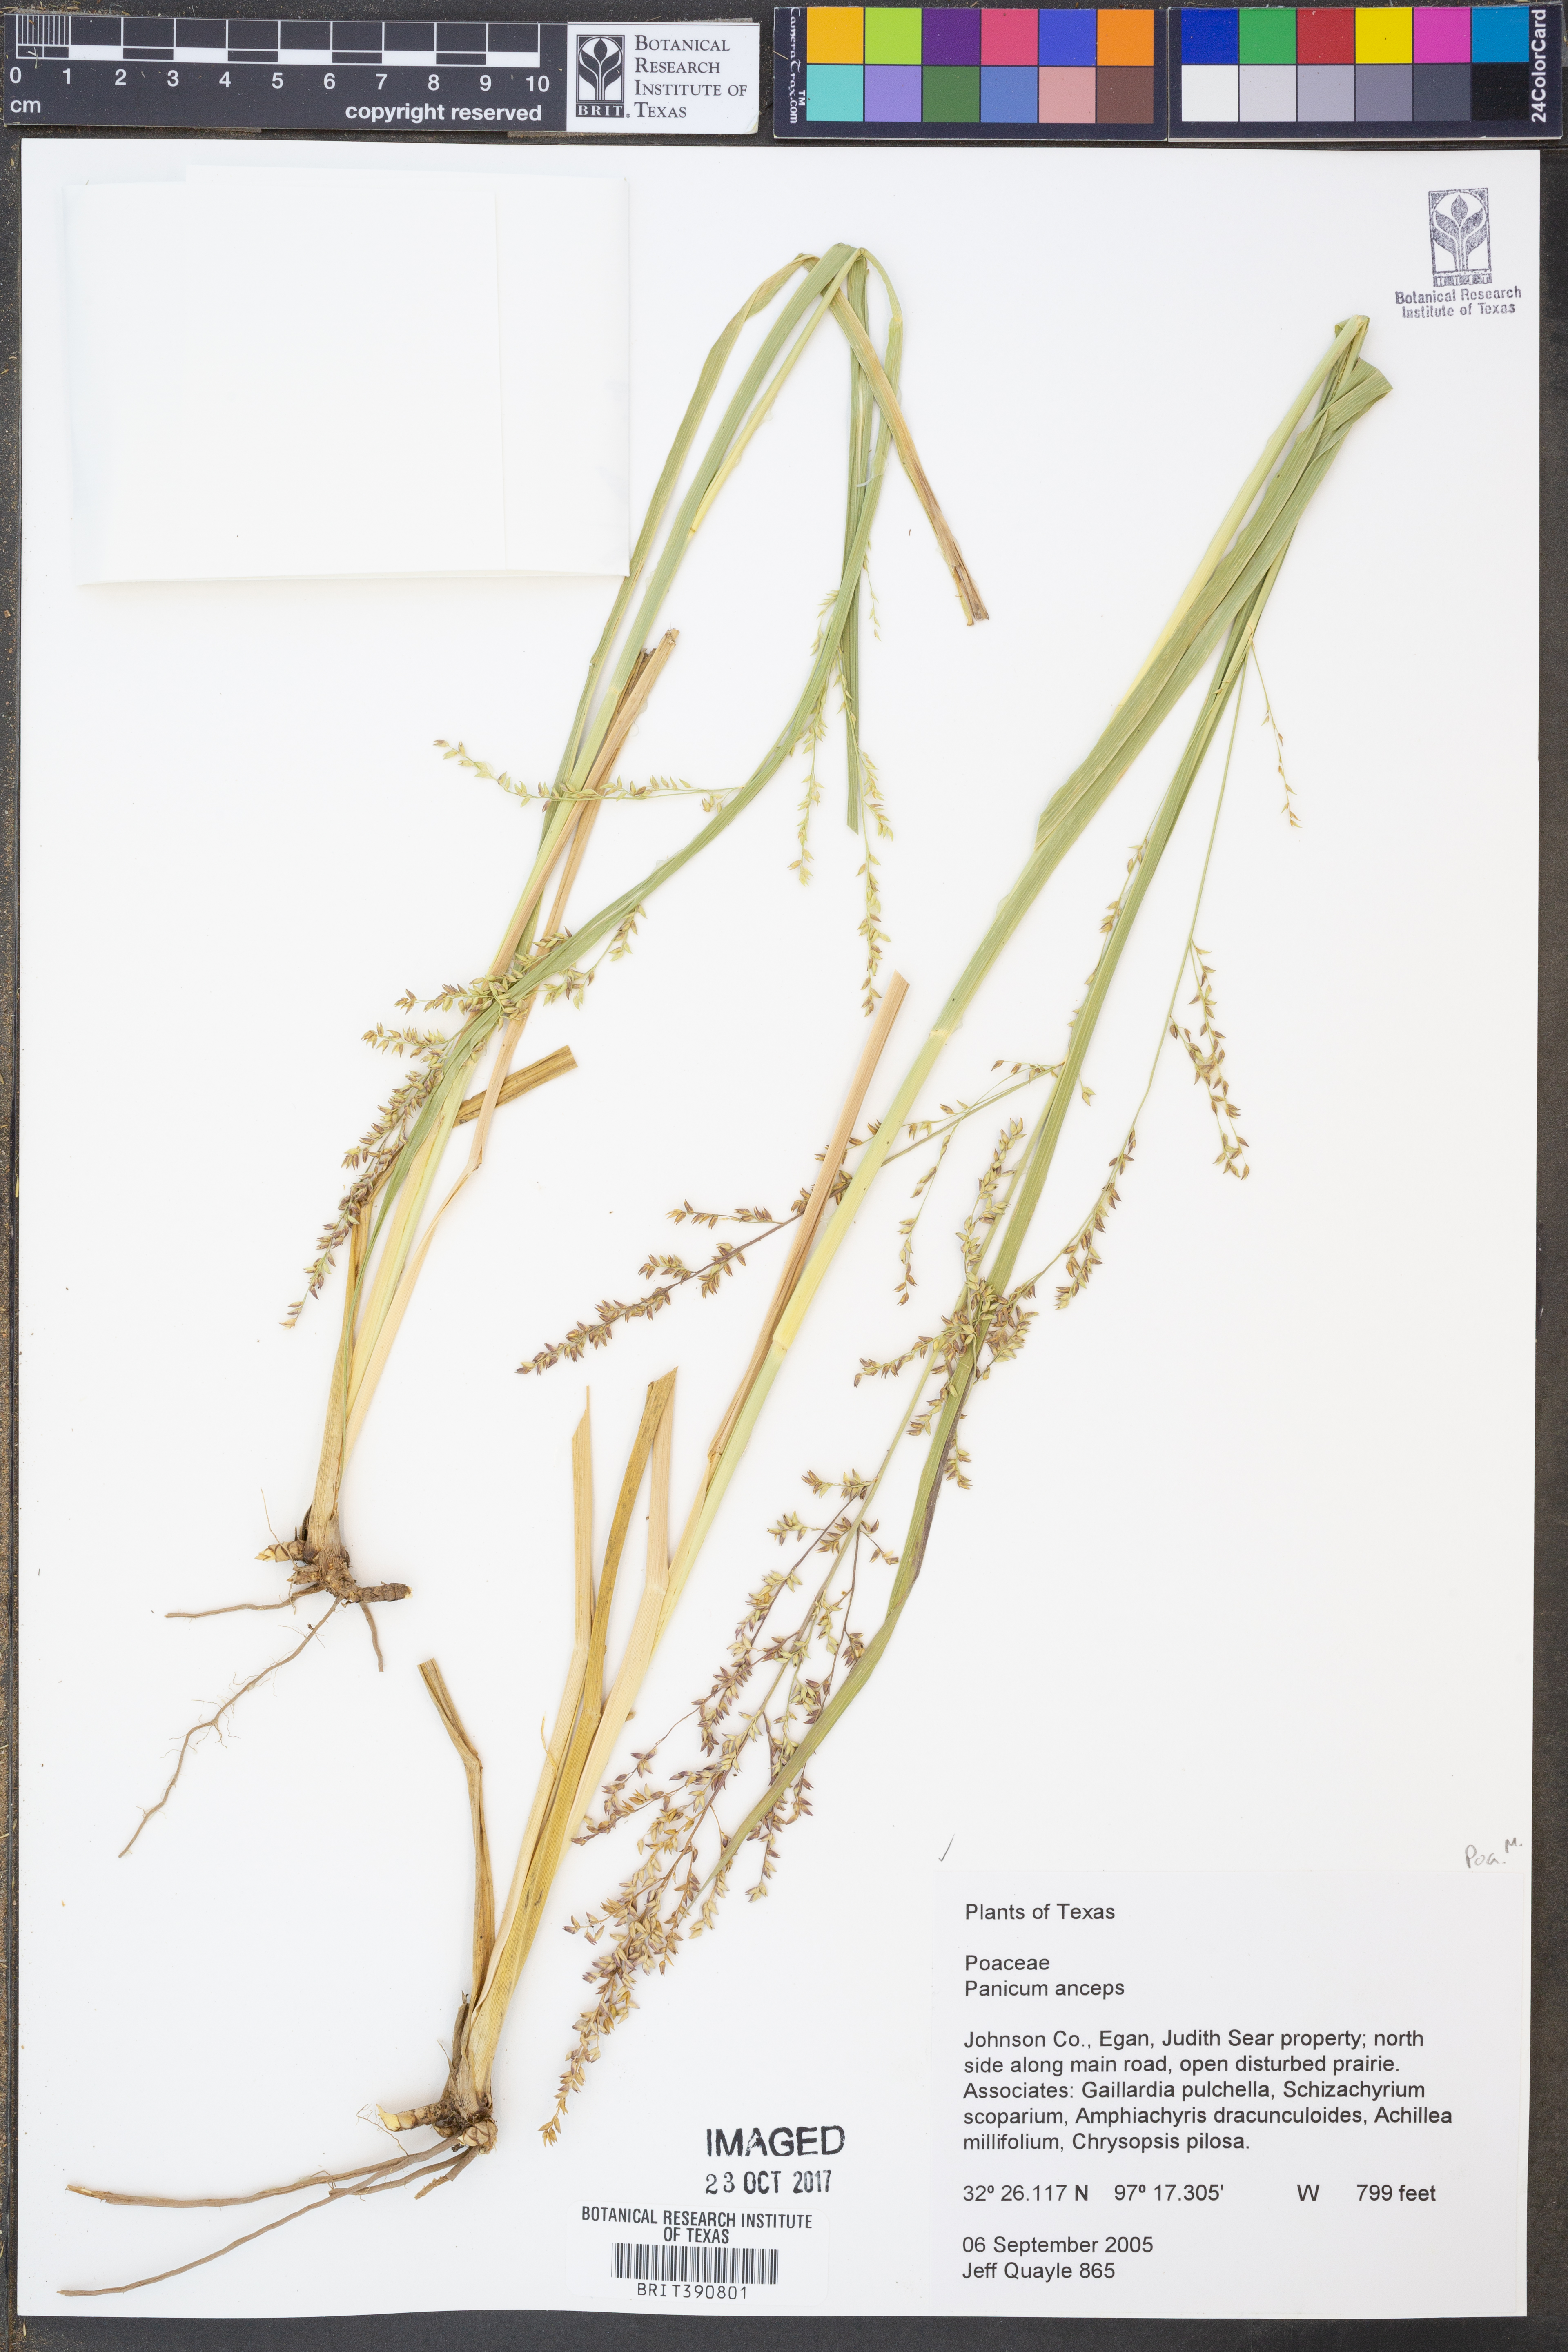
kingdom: Plantae
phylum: Tracheophyta
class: Liliopsida
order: Poales
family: Poaceae
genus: Coleataenia
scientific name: Coleataenia anceps
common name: Beaked panic grass
